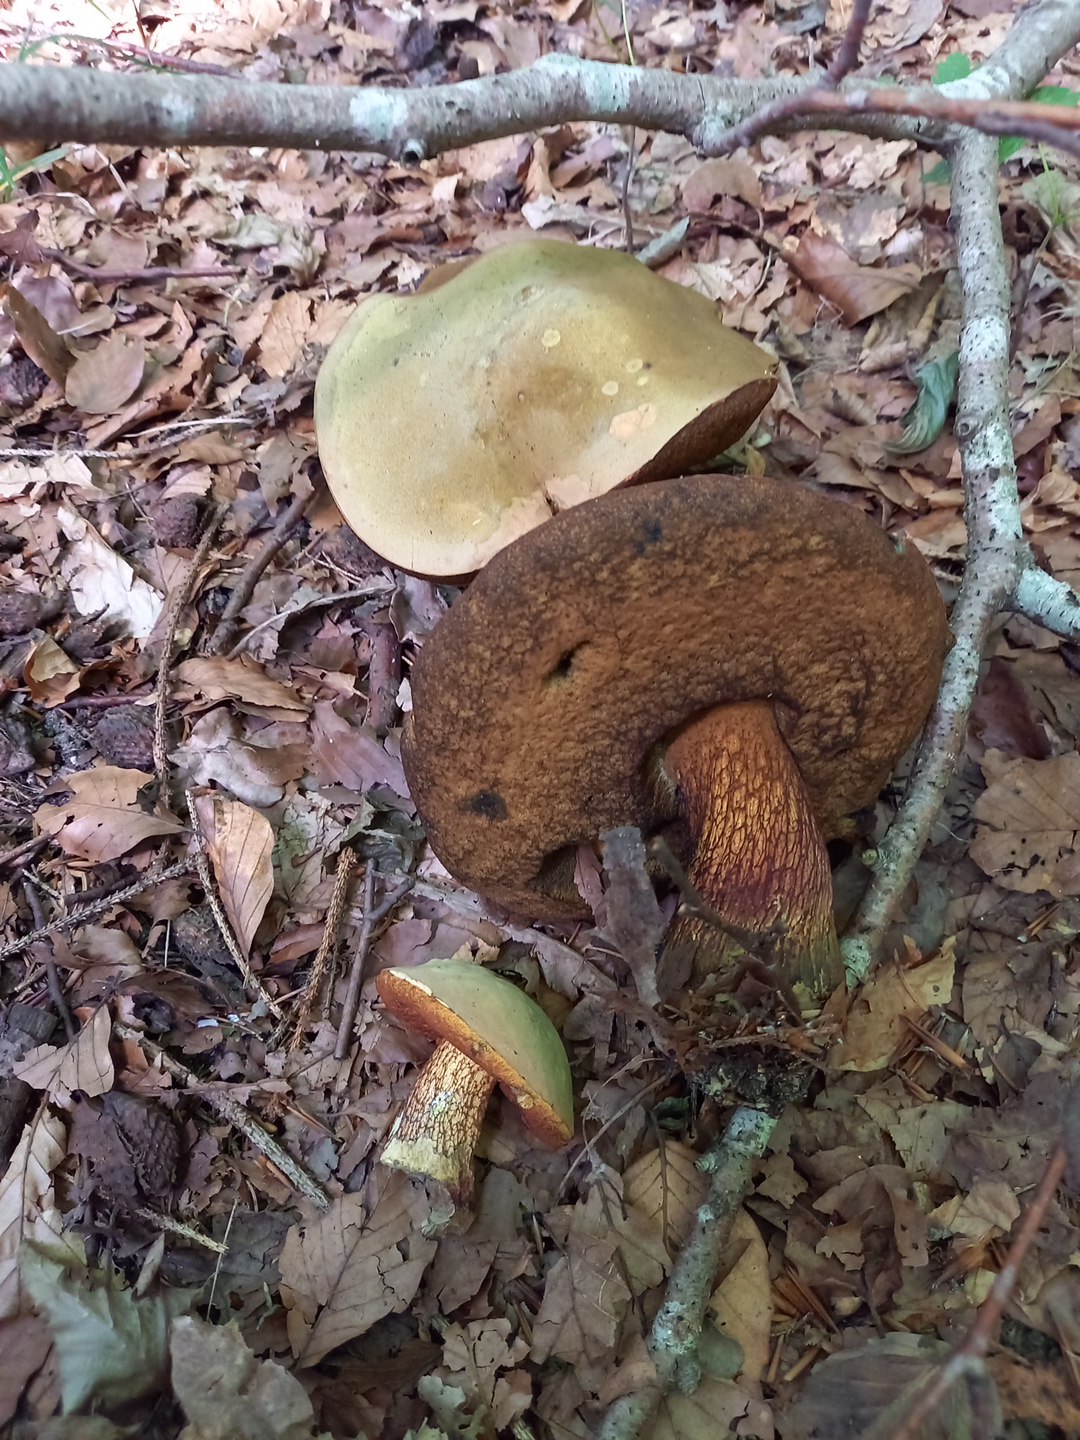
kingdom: Fungi
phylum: Basidiomycota
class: Agaricomycetes
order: Boletales
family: Boletaceae
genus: Suillellus
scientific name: Suillellus luridus
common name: netstokket indigorørhat
